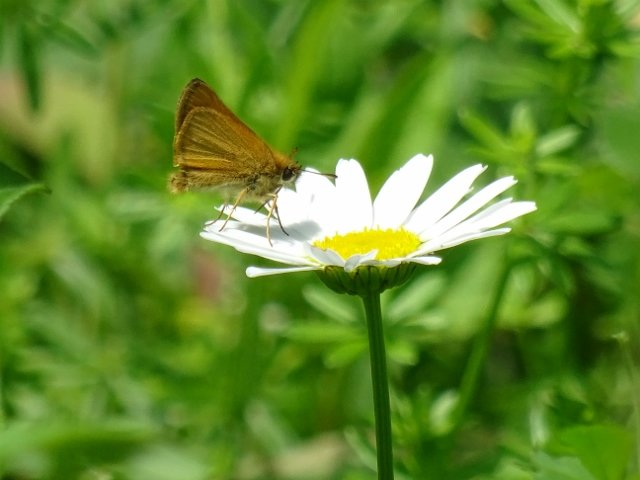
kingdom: Animalia
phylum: Arthropoda
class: Insecta
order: Lepidoptera
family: Hesperiidae
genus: Thymelicus
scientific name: Thymelicus lineola
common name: European Skipper
